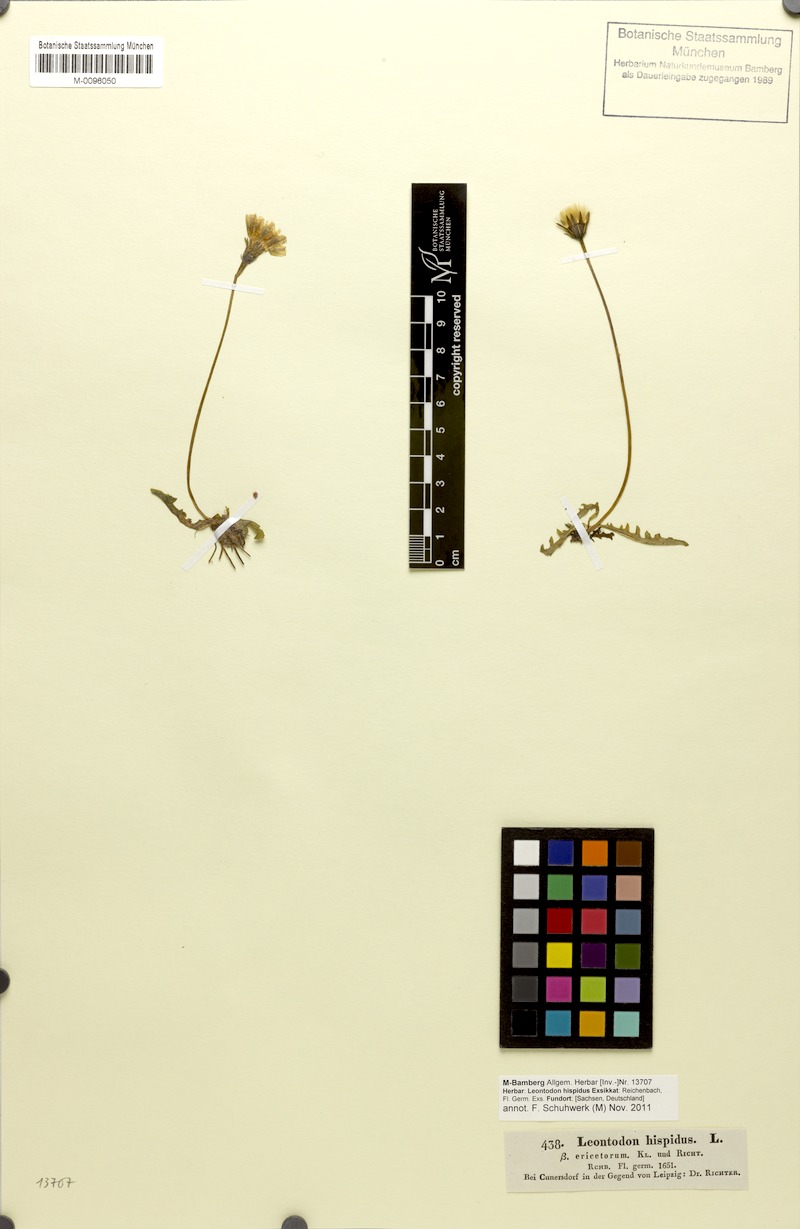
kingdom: Plantae
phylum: Tracheophyta
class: Magnoliopsida
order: Asterales
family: Asteraceae
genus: Leontodon
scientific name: Leontodon hispidus
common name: Rough hawkbit
